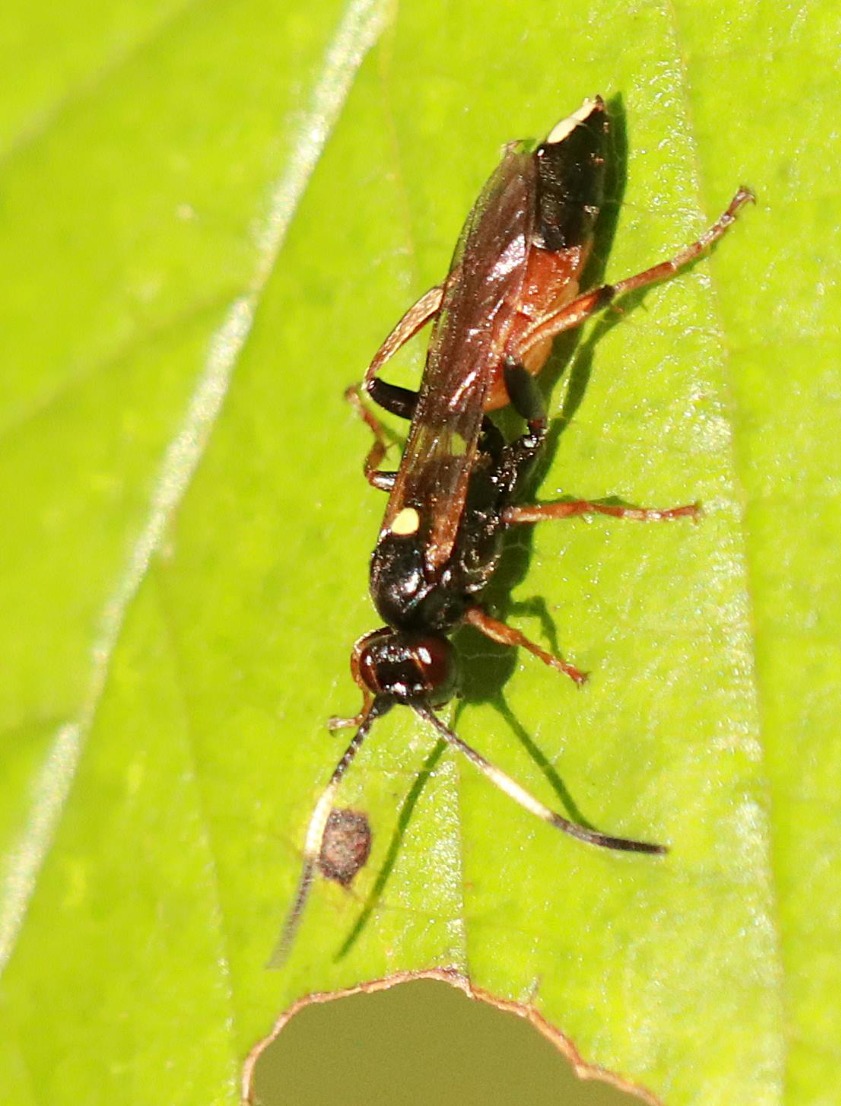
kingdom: Animalia
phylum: Arthropoda
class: Insecta
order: Hymenoptera
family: Ichneumonidae
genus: Ichneumon
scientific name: Ichneumon
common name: Ichneumon
